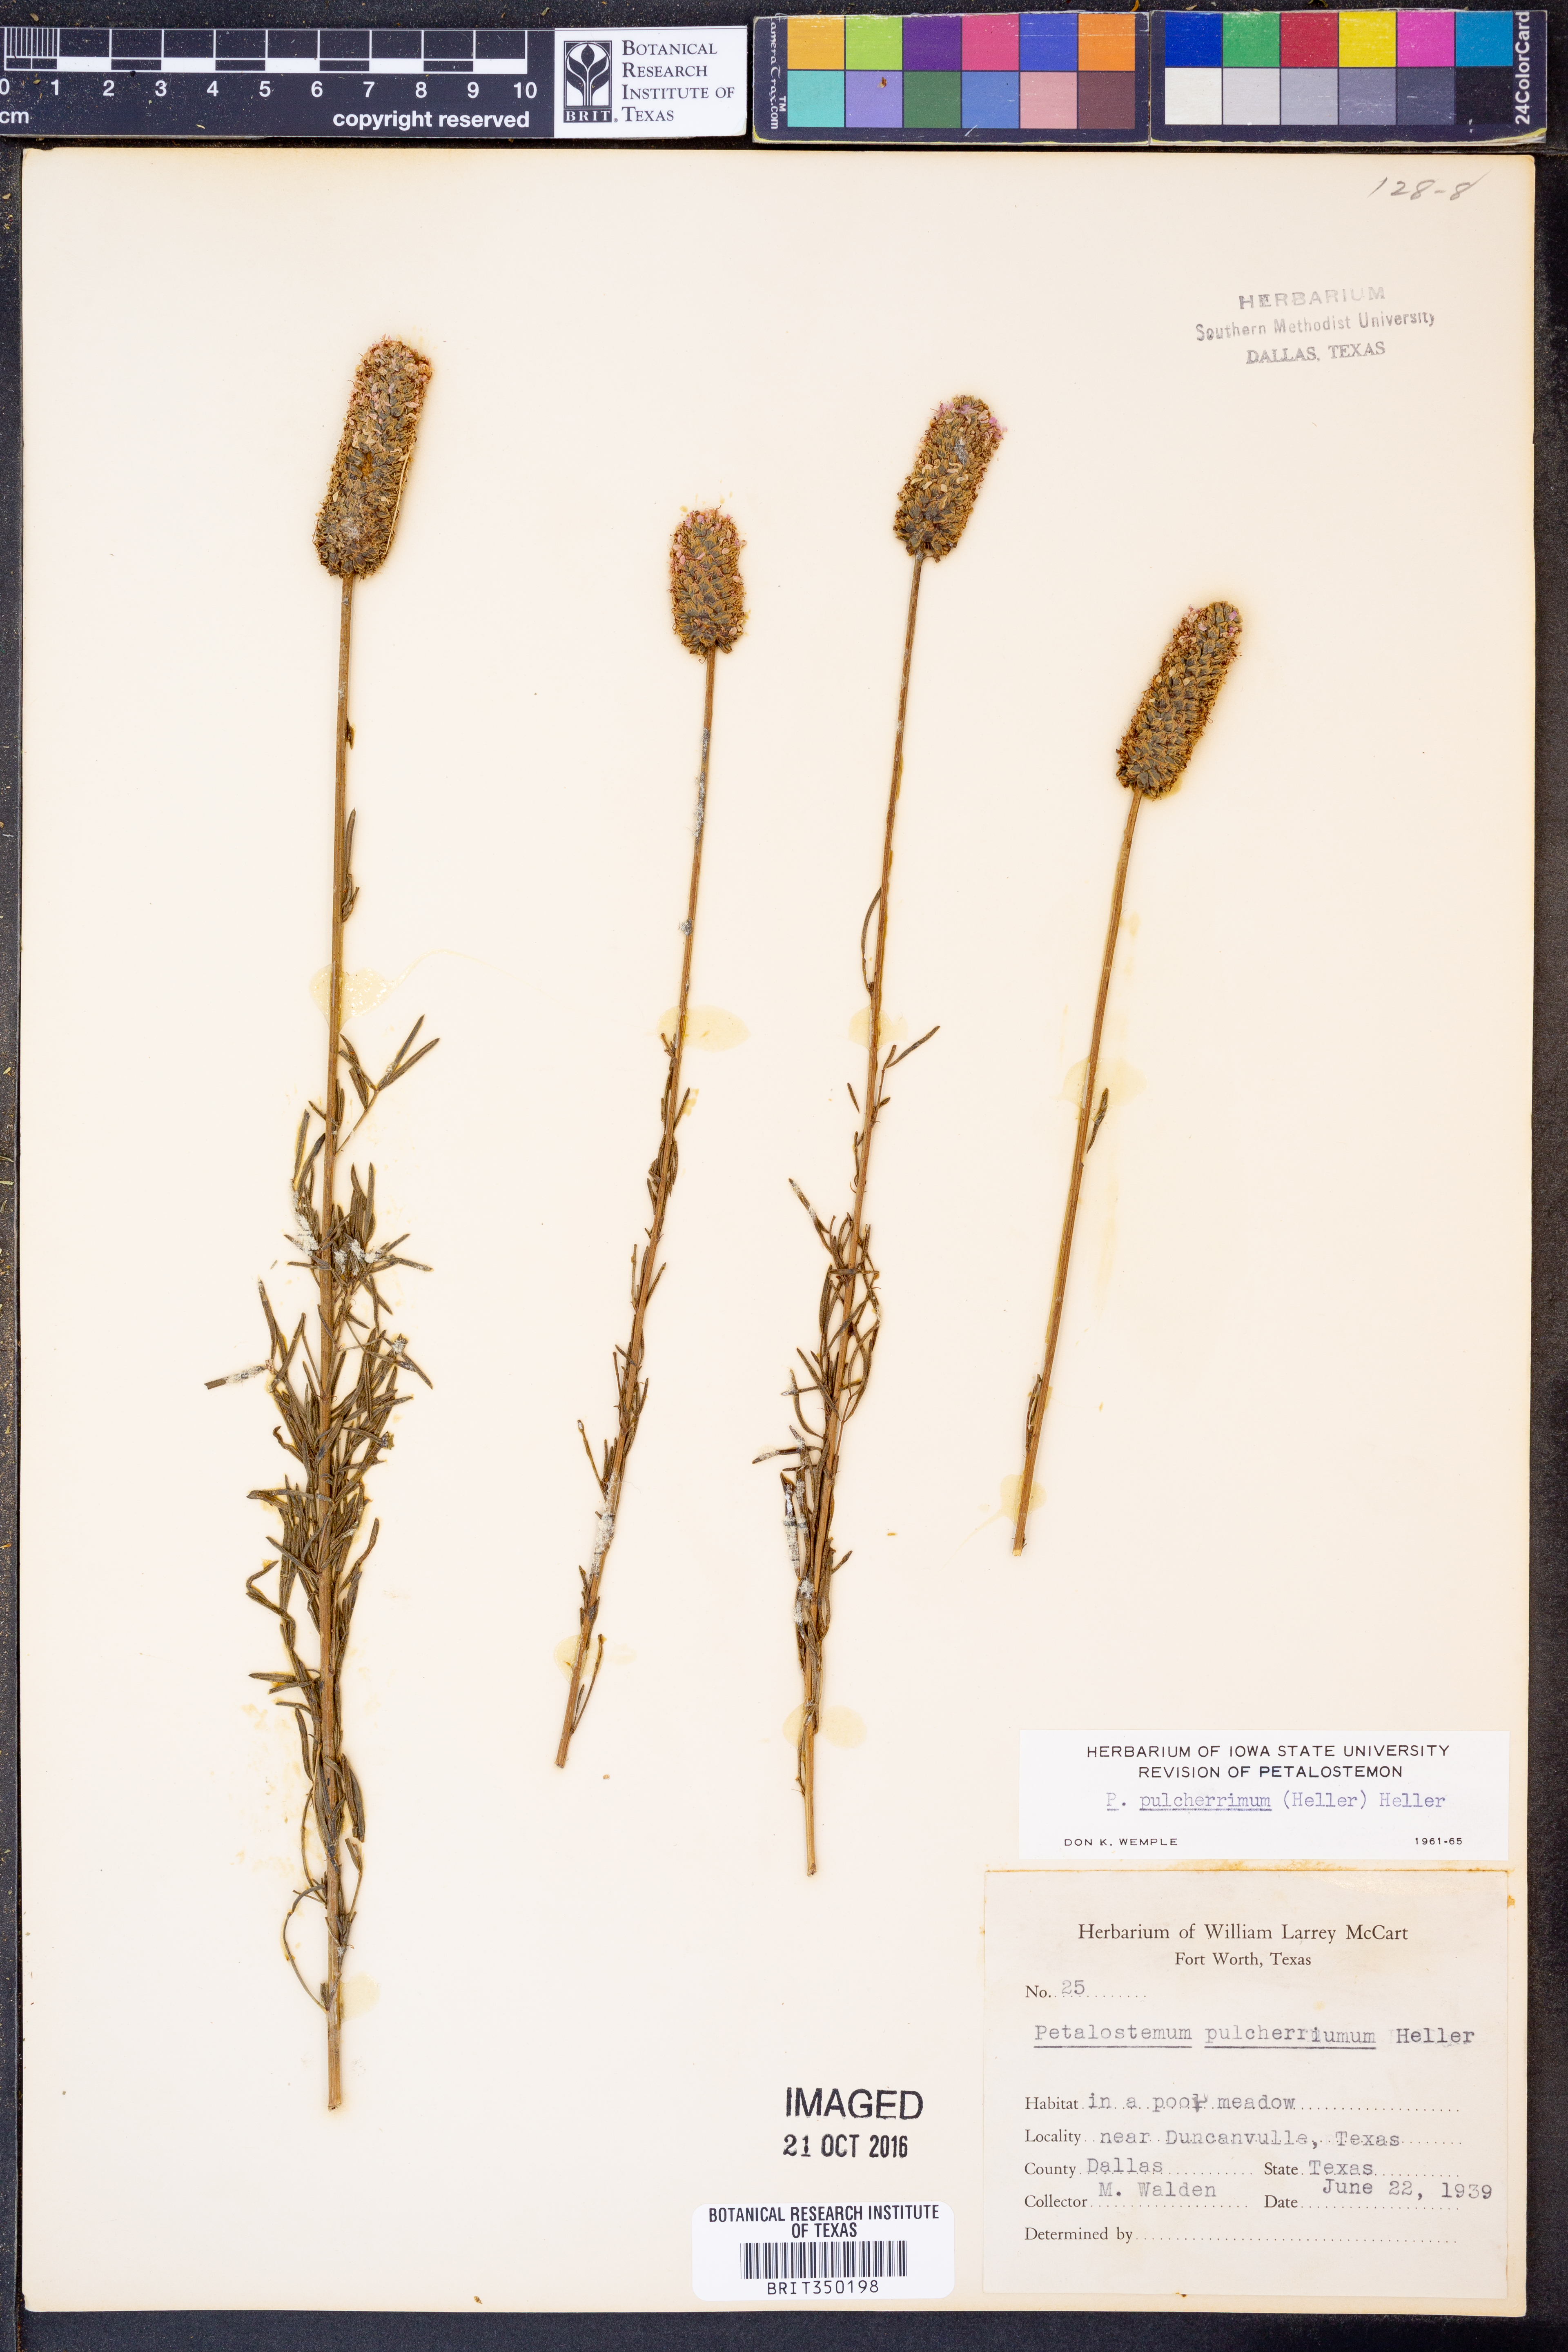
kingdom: Plantae
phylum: Tracheophyta
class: Magnoliopsida
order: Fabales
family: Fabaceae
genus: Dalea
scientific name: Dalea compacta
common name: Compact prairie-clover
